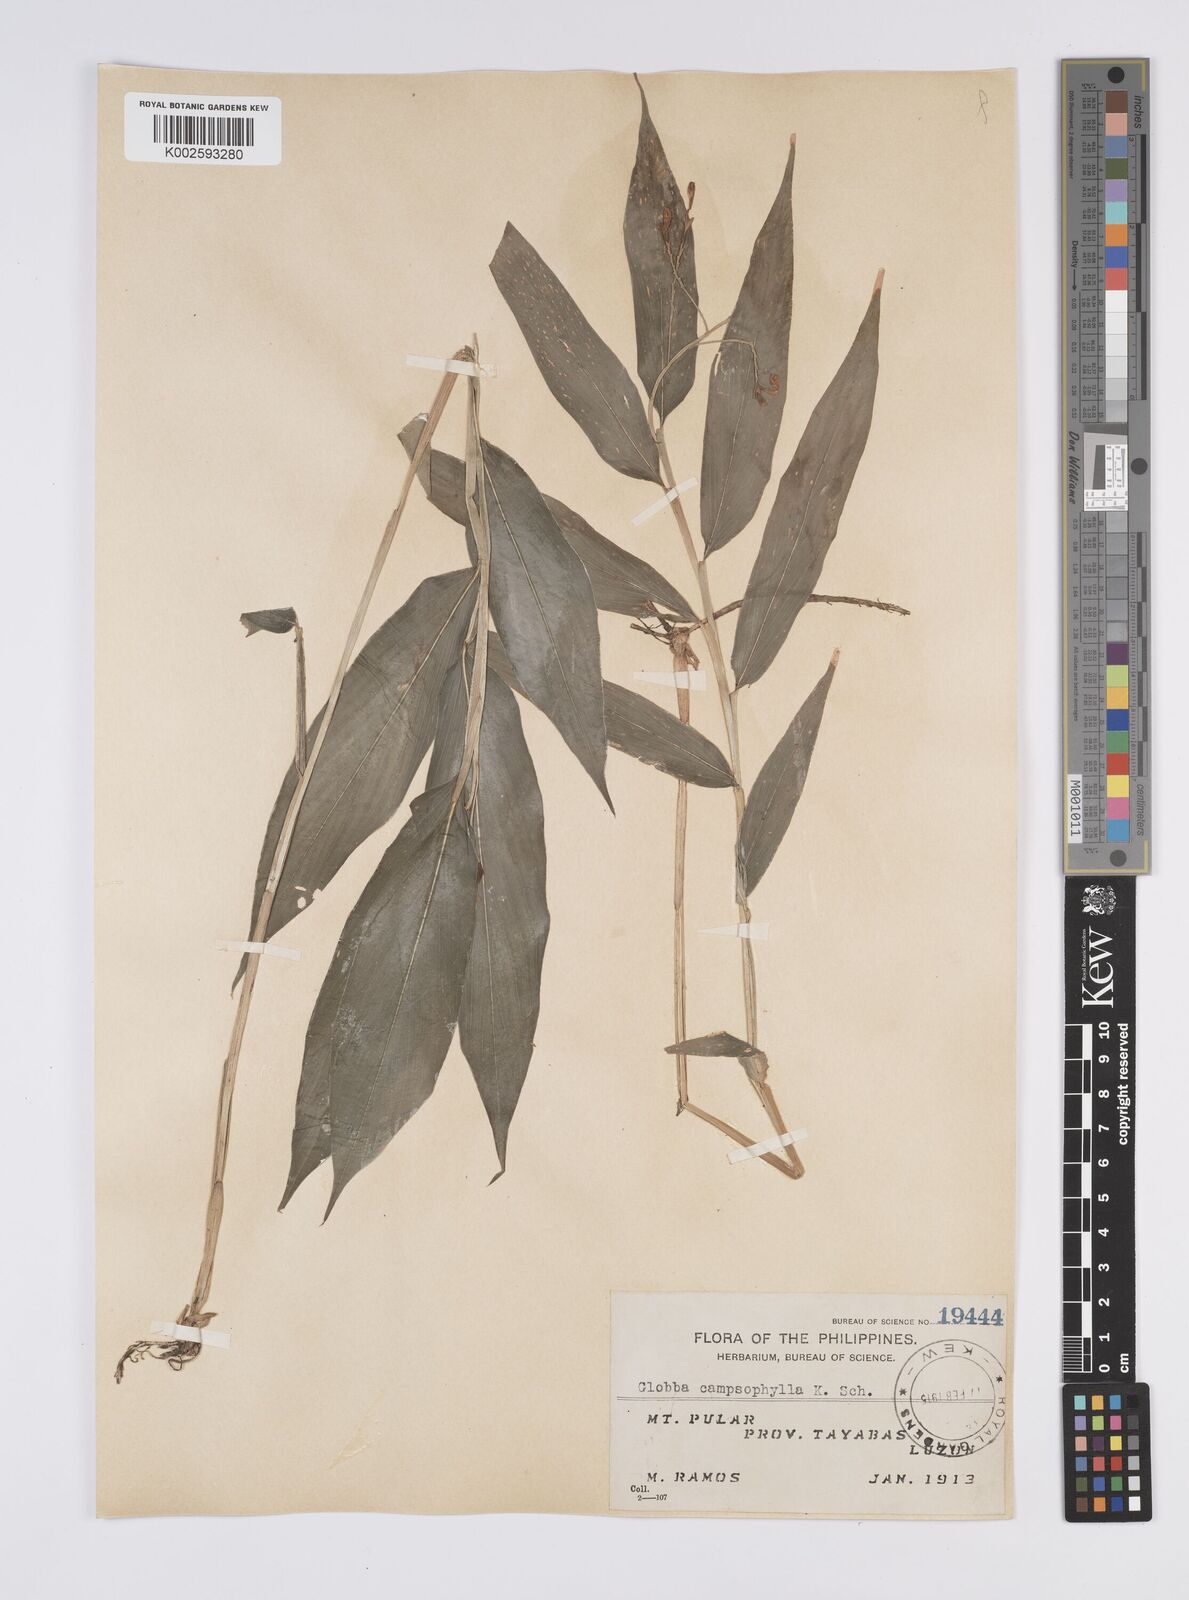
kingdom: Plantae
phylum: Tracheophyta
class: Liliopsida
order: Zingiberales
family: Zingiberaceae
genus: Globba
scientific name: Globba campsophylla
